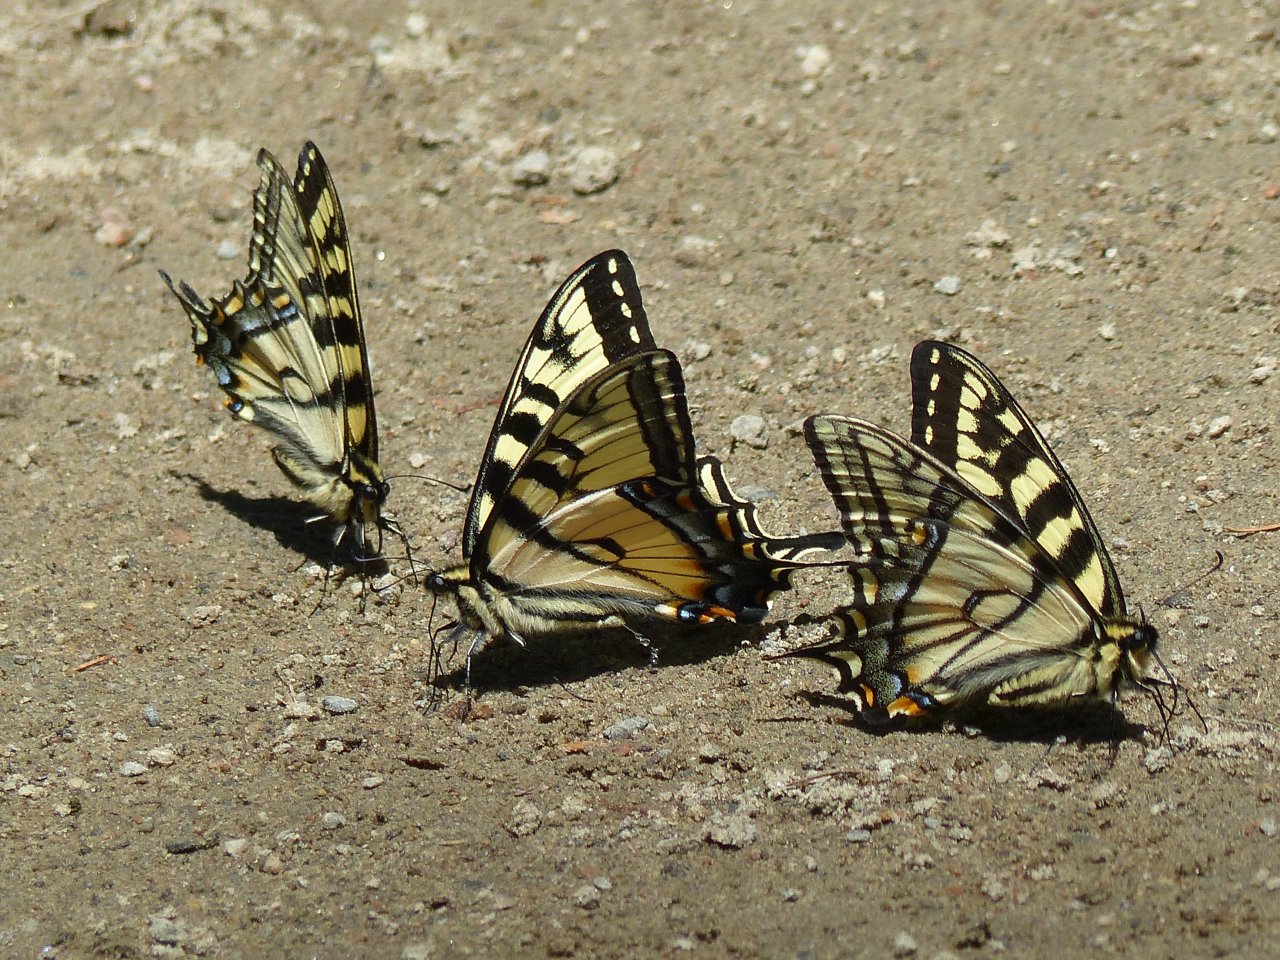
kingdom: Animalia
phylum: Arthropoda
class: Insecta
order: Lepidoptera
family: Papilionidae
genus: Pterourus
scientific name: Pterourus canadensis
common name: Canadian Tiger Swallowtail
